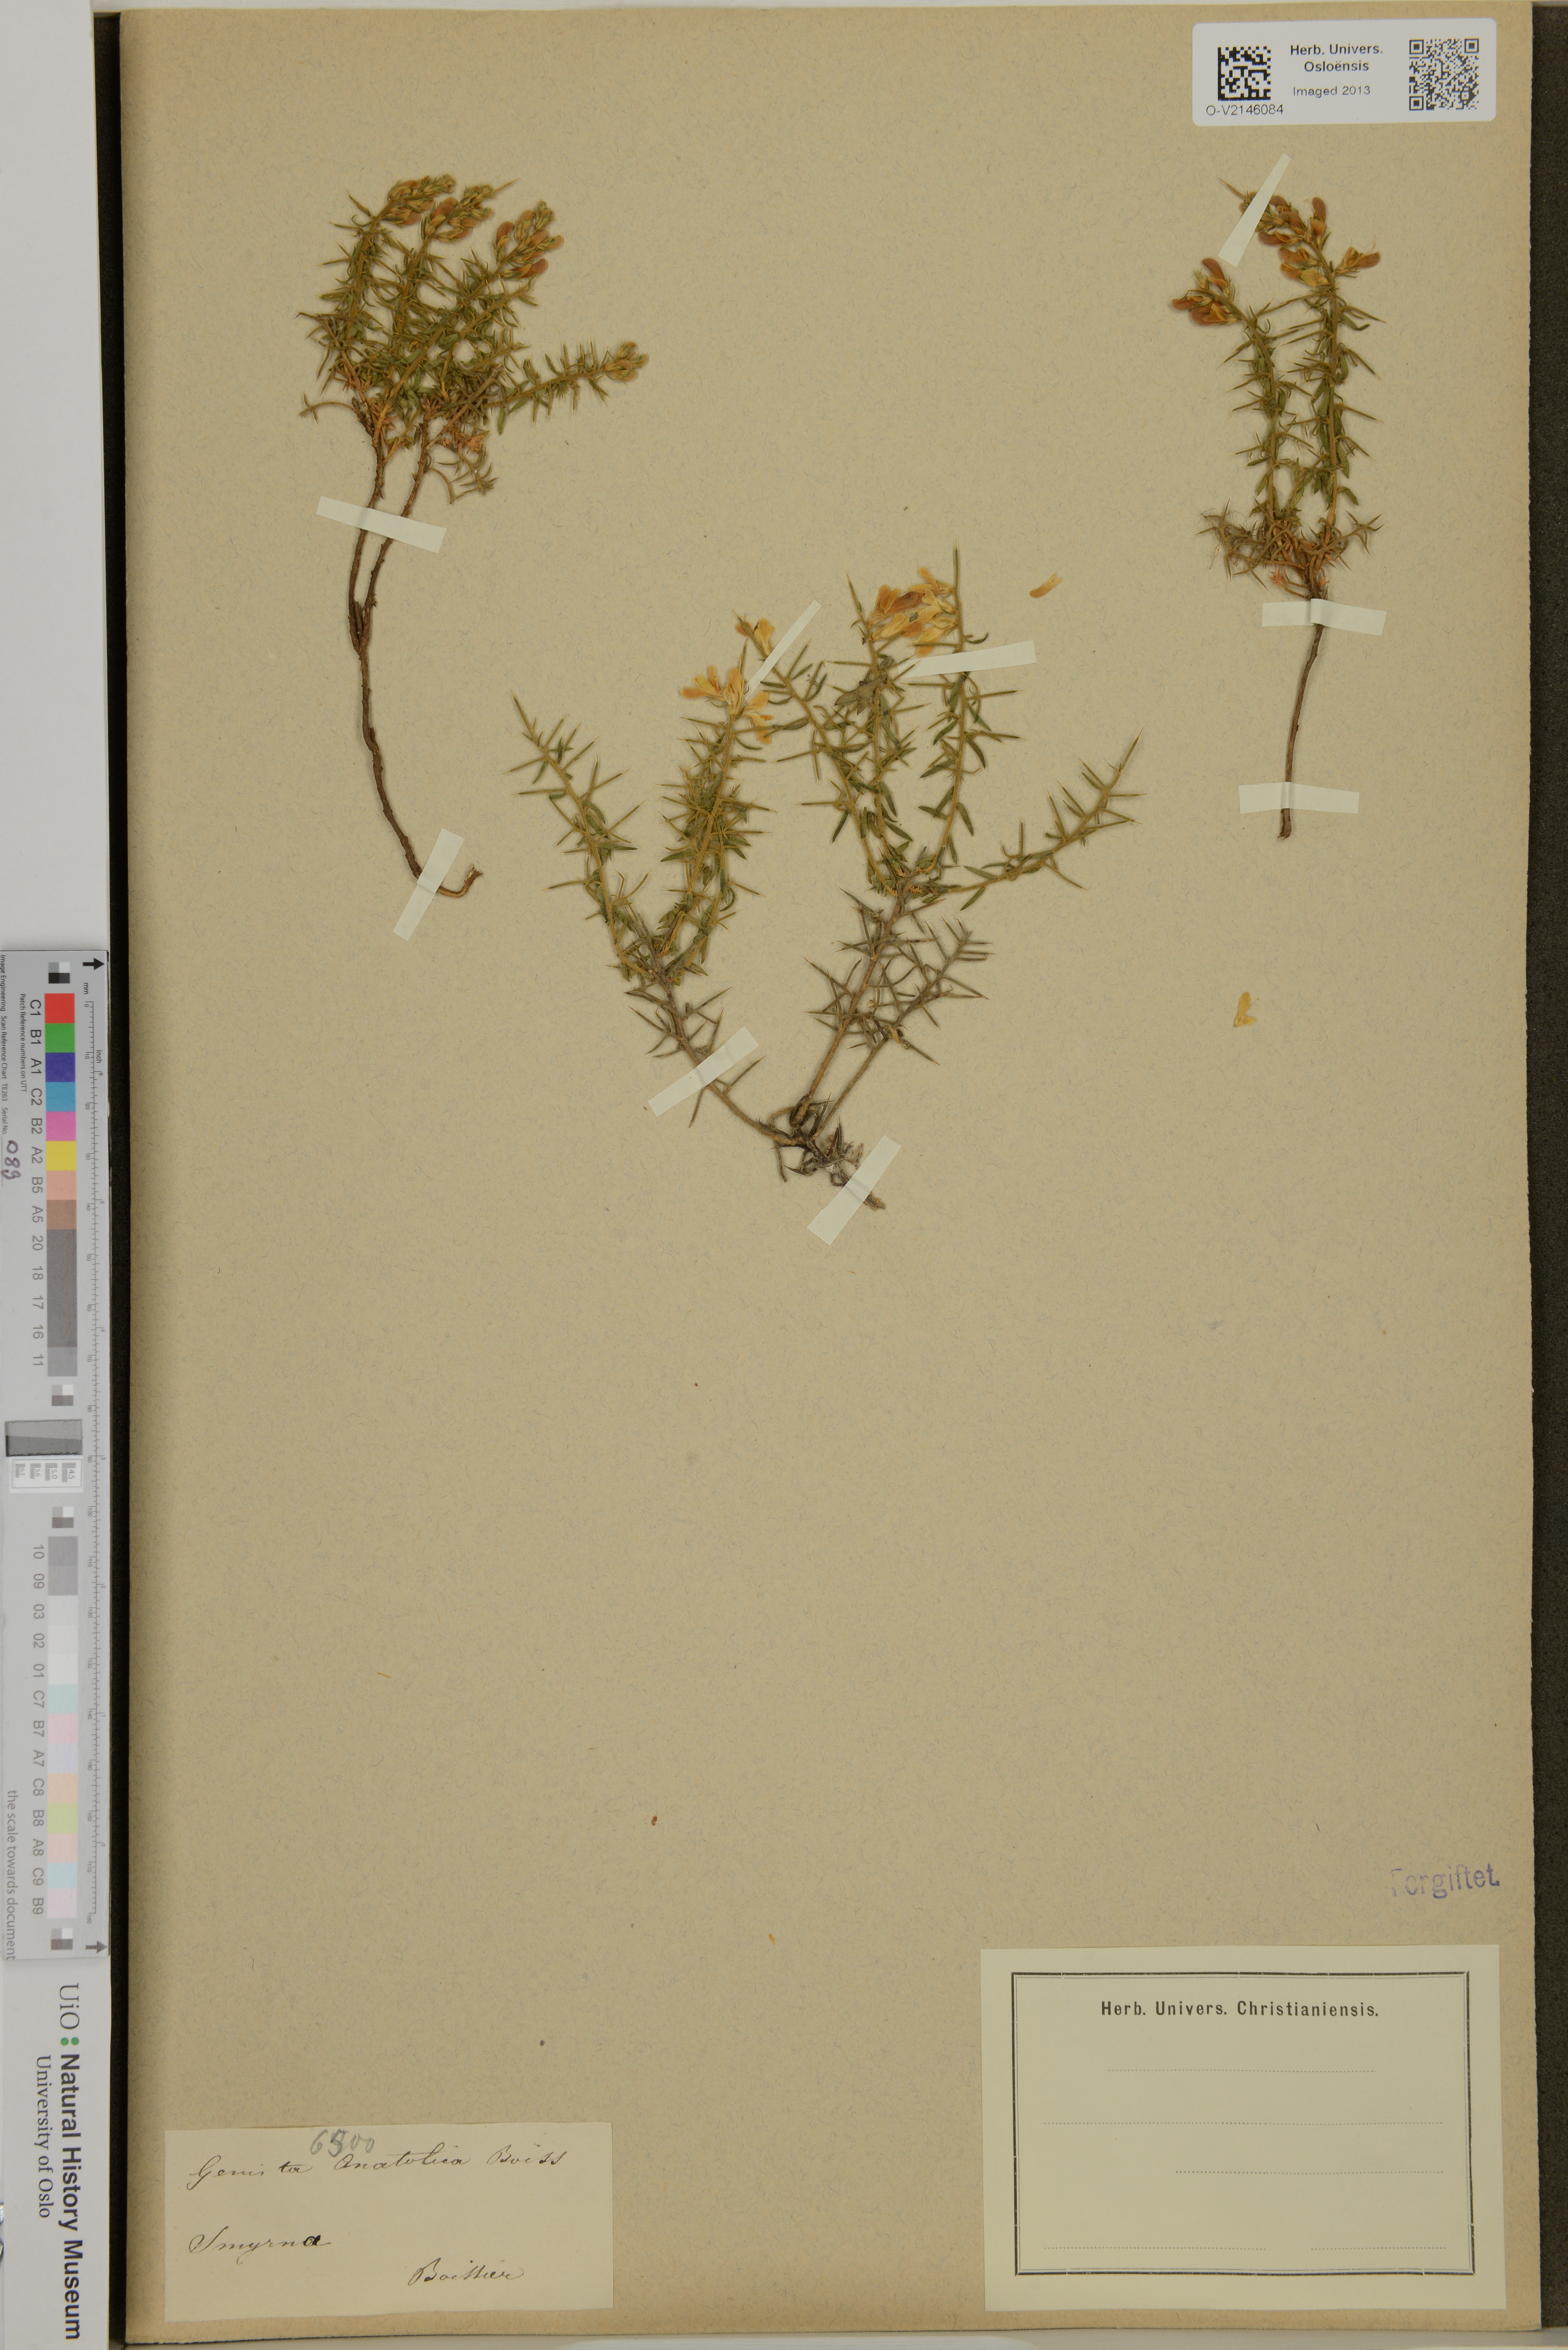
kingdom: Plantae
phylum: Tracheophyta
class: Magnoliopsida
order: Fabales
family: Fabaceae
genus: Genista
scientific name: Genista anatolica
